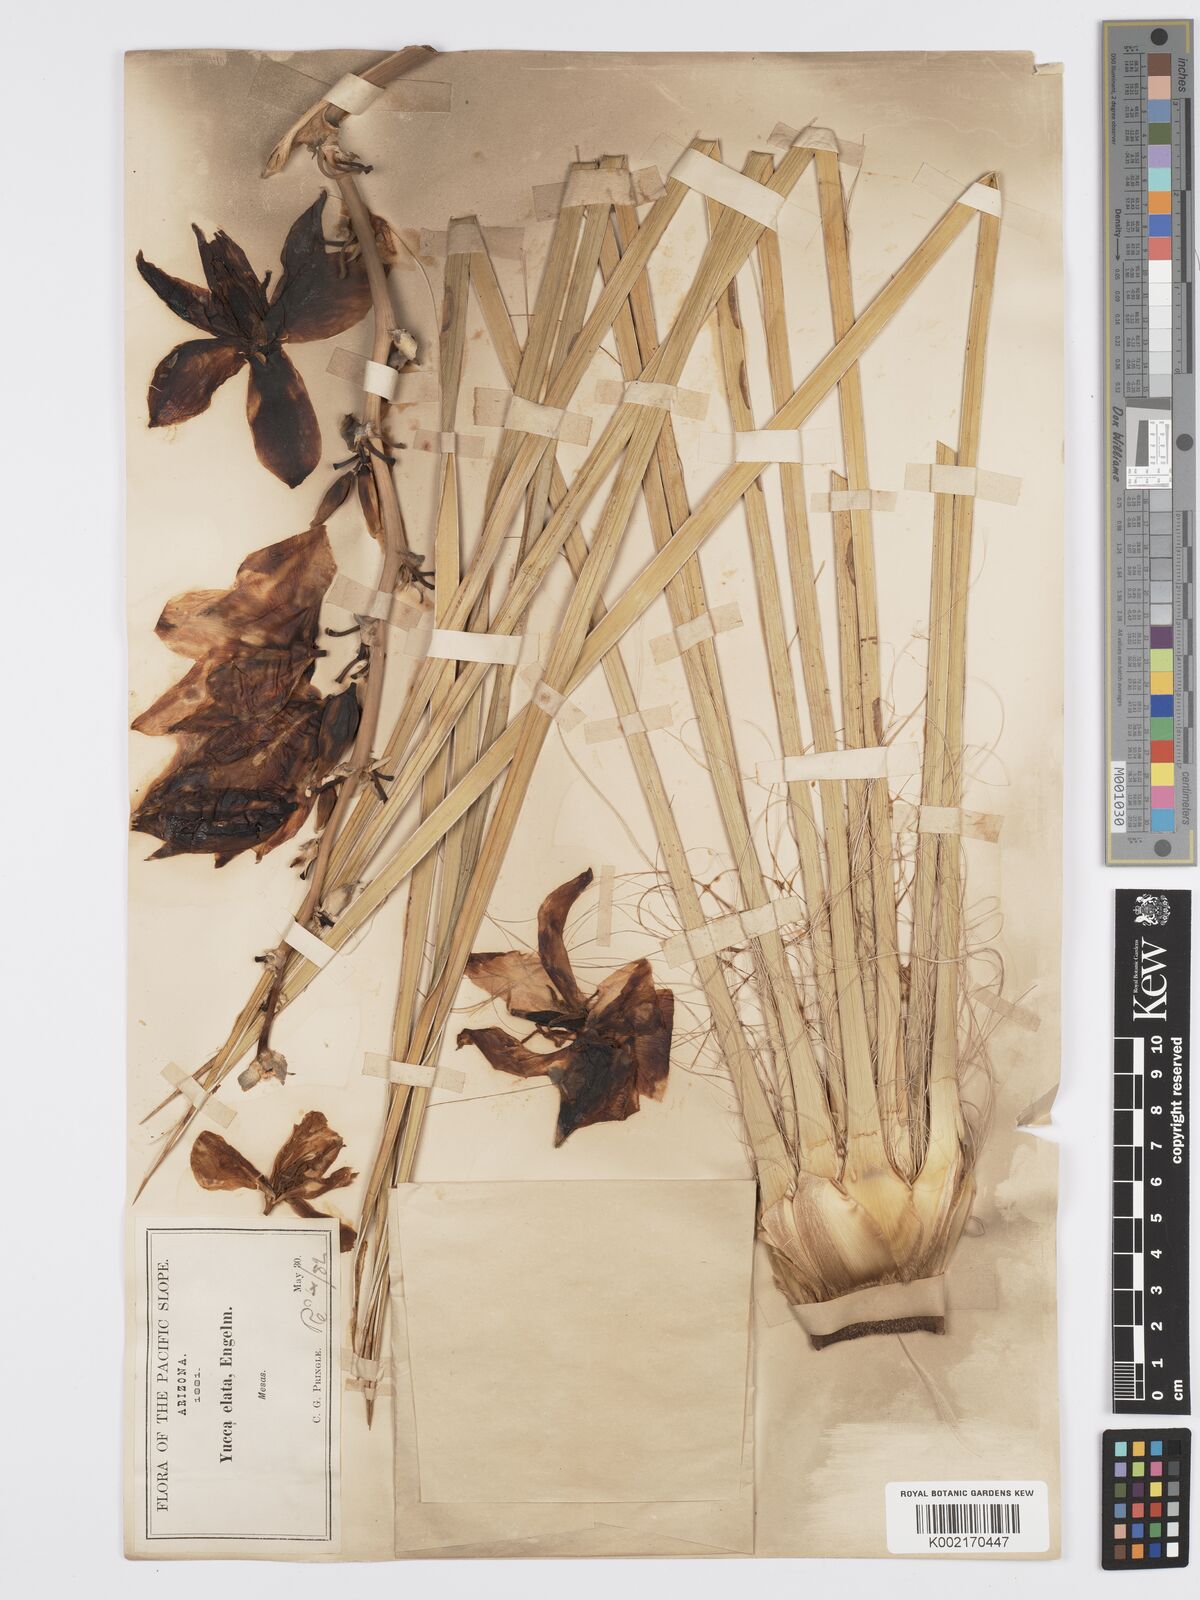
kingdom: Plantae
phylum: Tracheophyta
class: Liliopsida
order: Asparagales
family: Asparagaceae
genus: Yucca
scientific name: Yucca elata
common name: Palmella
